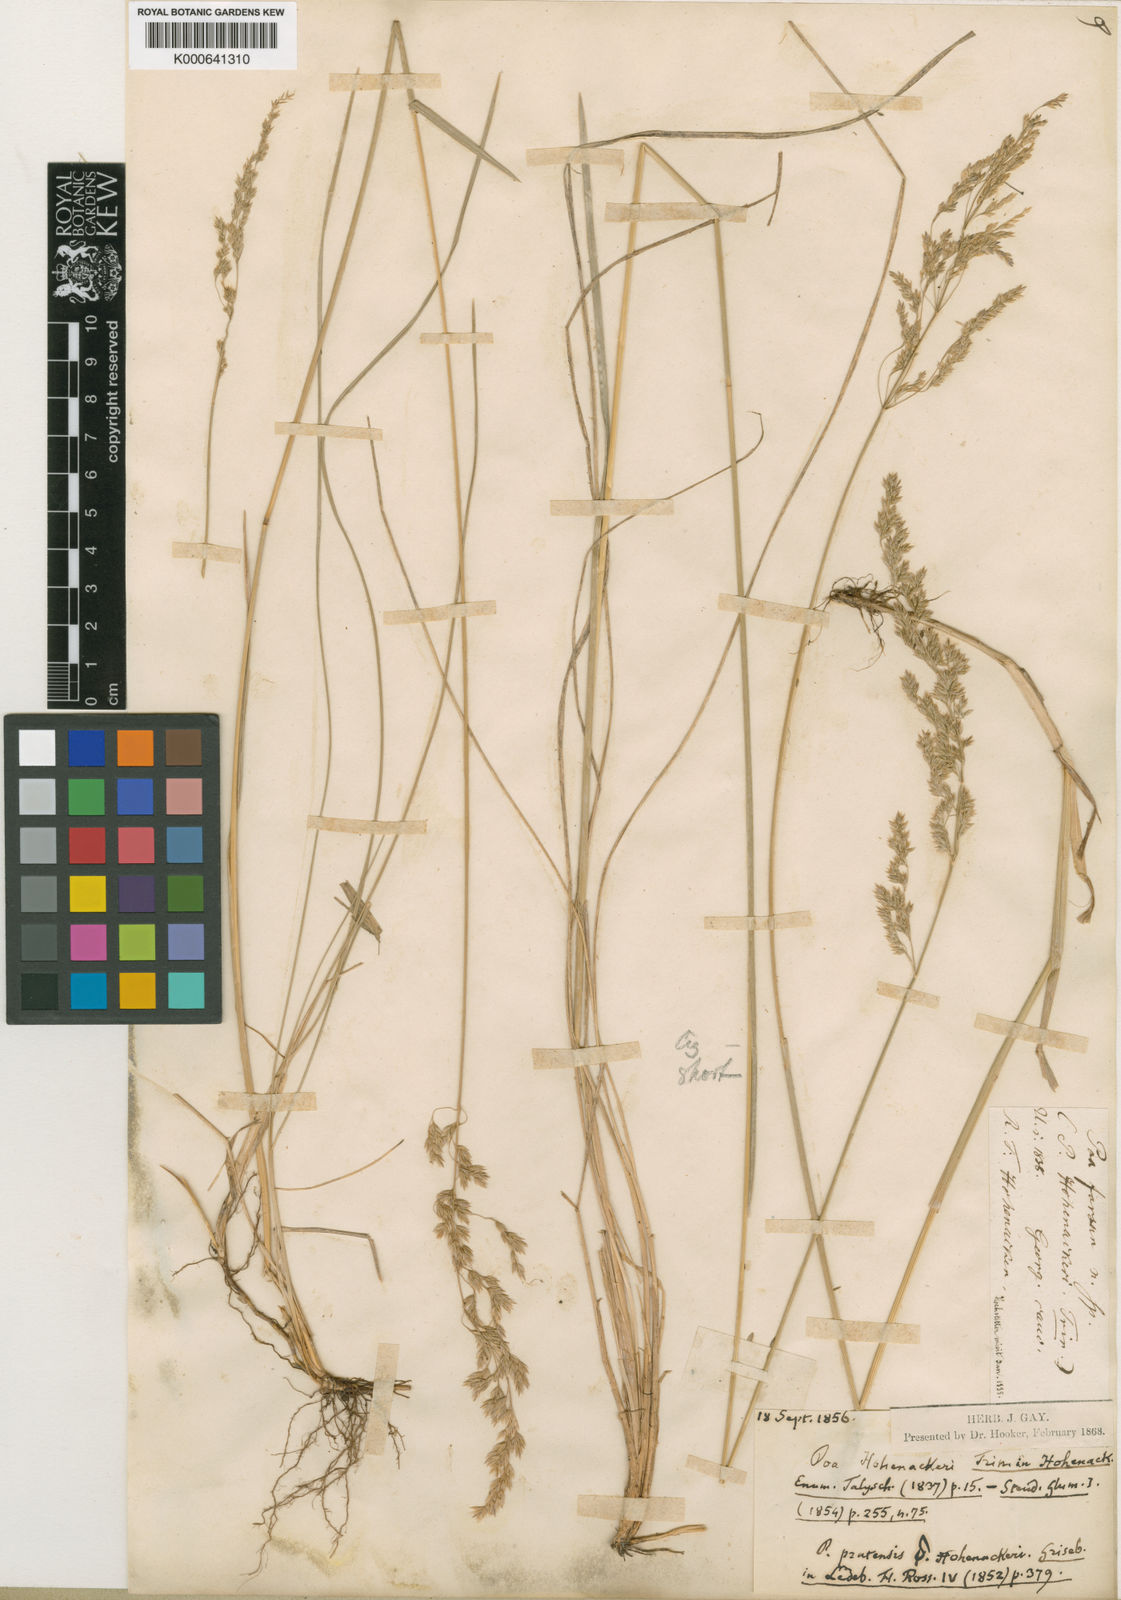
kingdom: Plantae
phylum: Tracheophyta
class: Liliopsida
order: Poales
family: Poaceae
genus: Poa
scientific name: Poa pratensis
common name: Kentucky bluegrass
